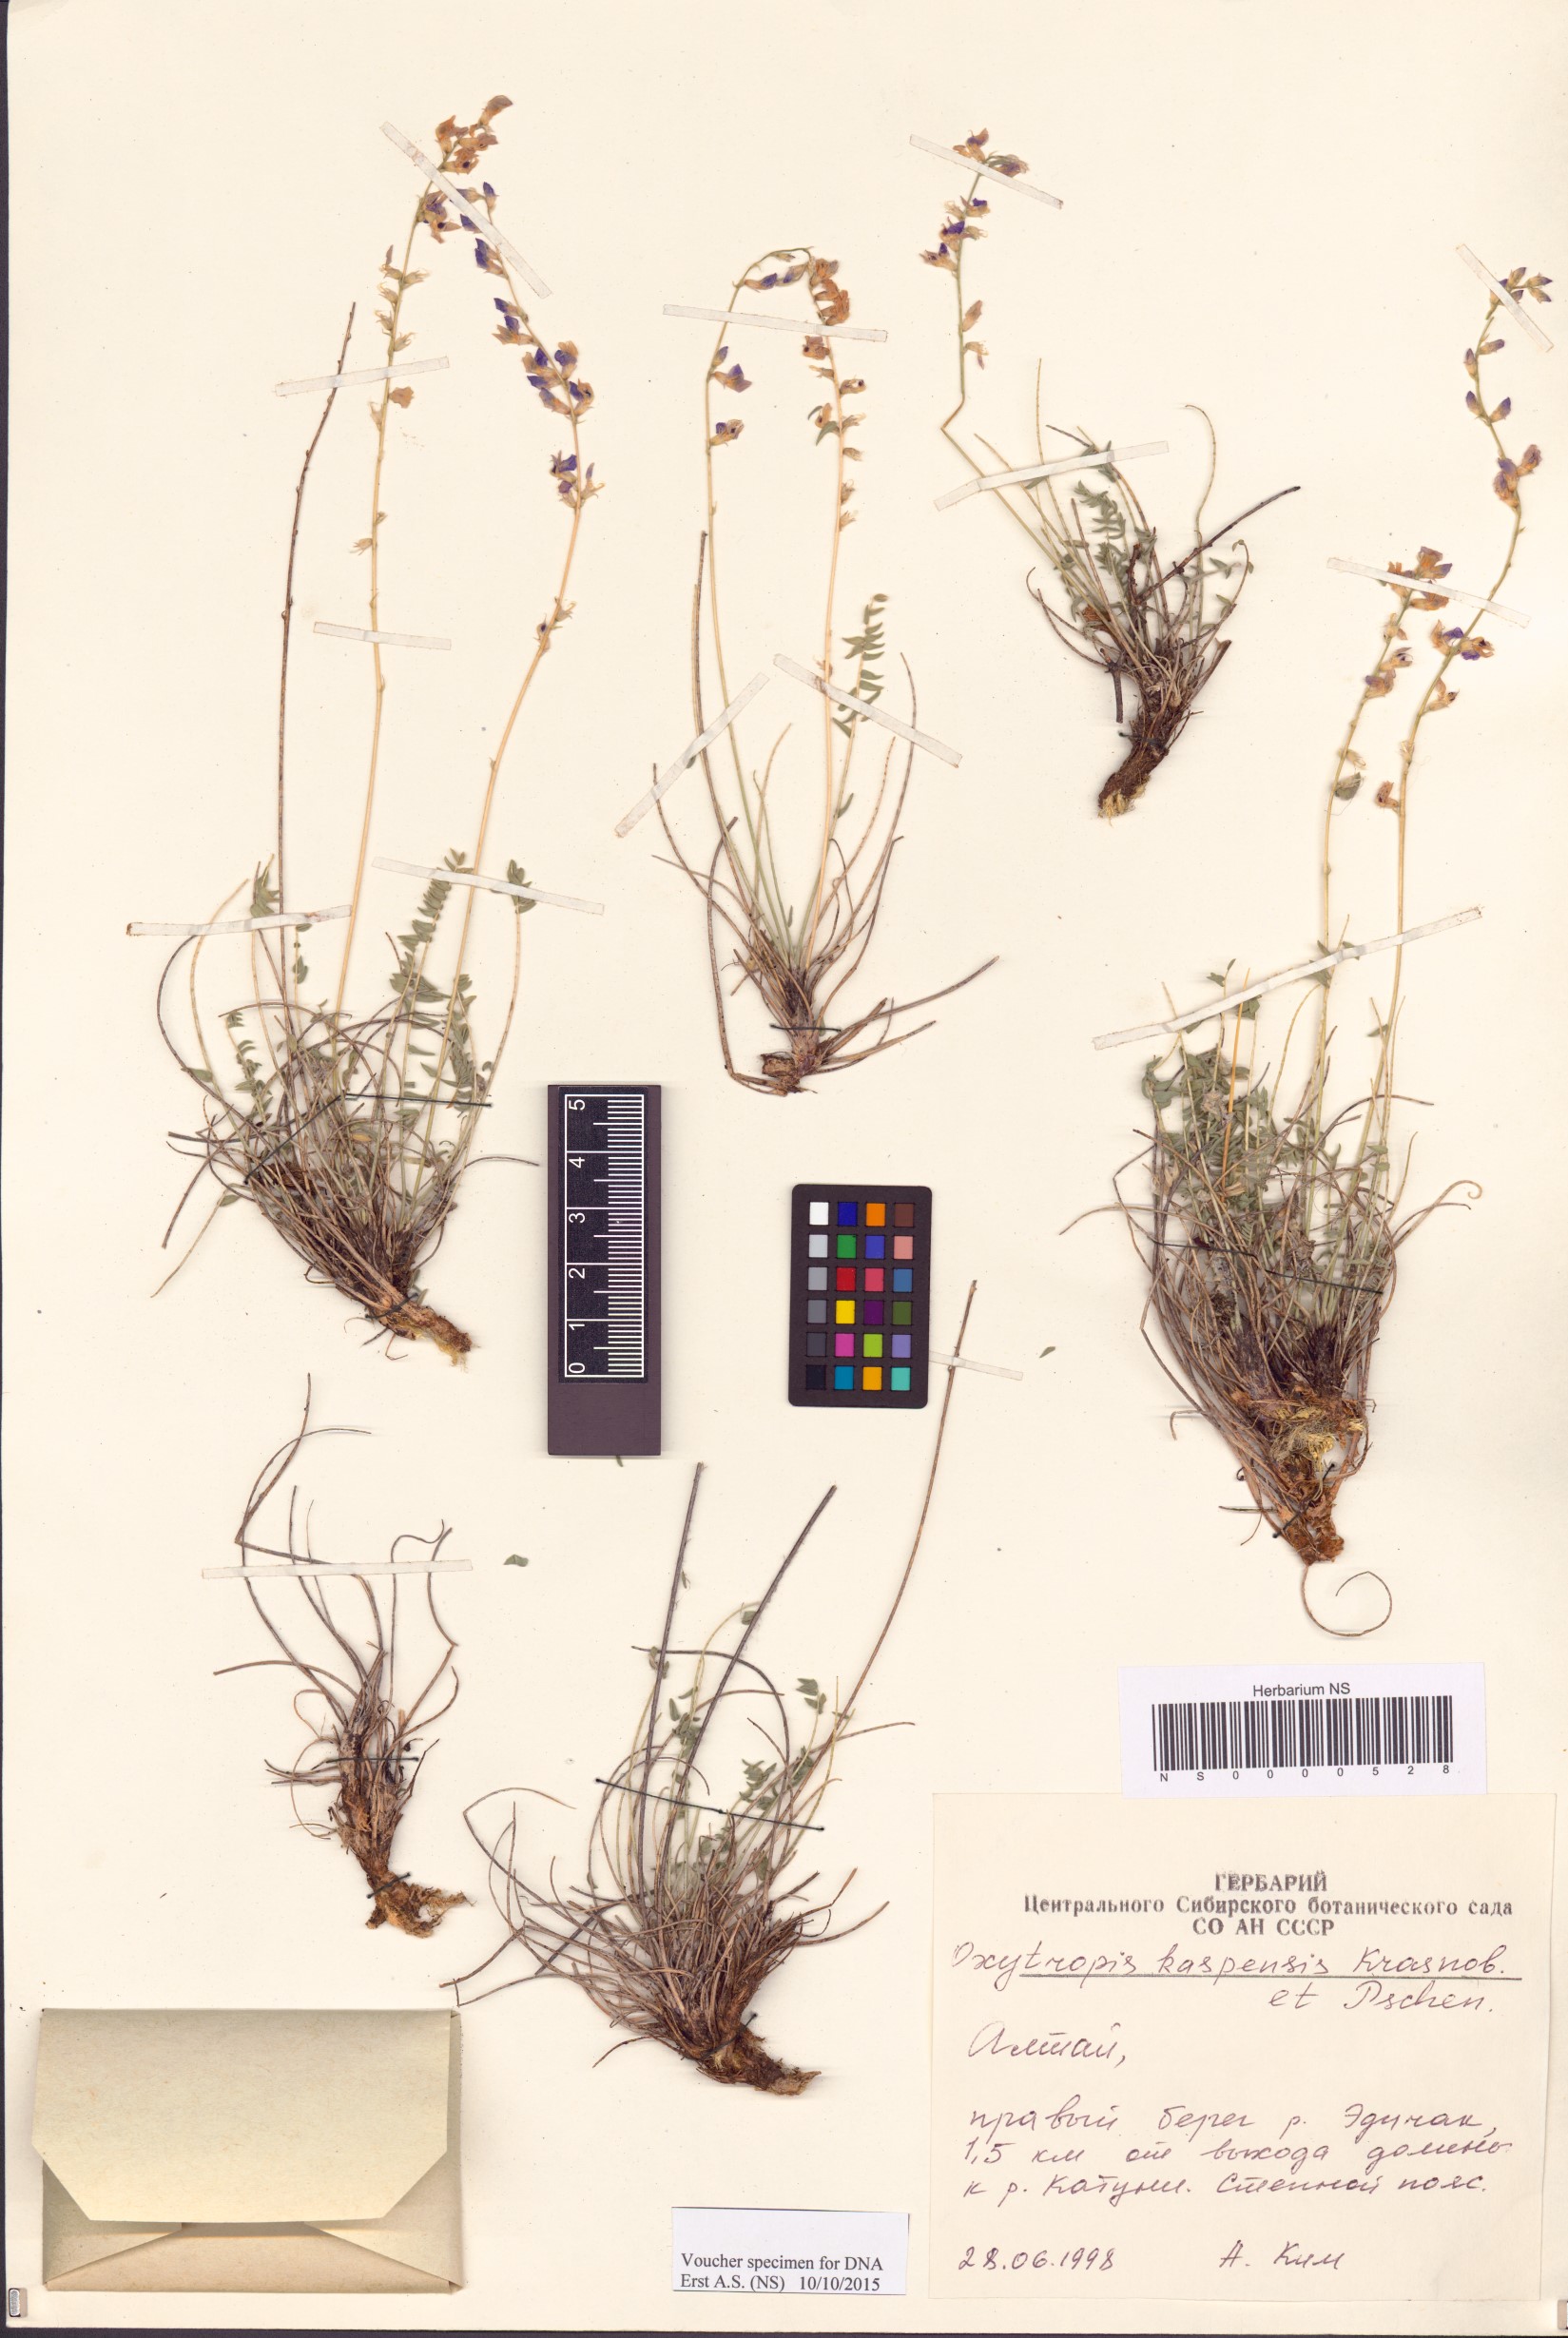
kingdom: Plantae
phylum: Tracheophyta
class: Magnoliopsida
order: Fabales
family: Fabaceae
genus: Oxytropis
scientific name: Oxytropis kaspensis
